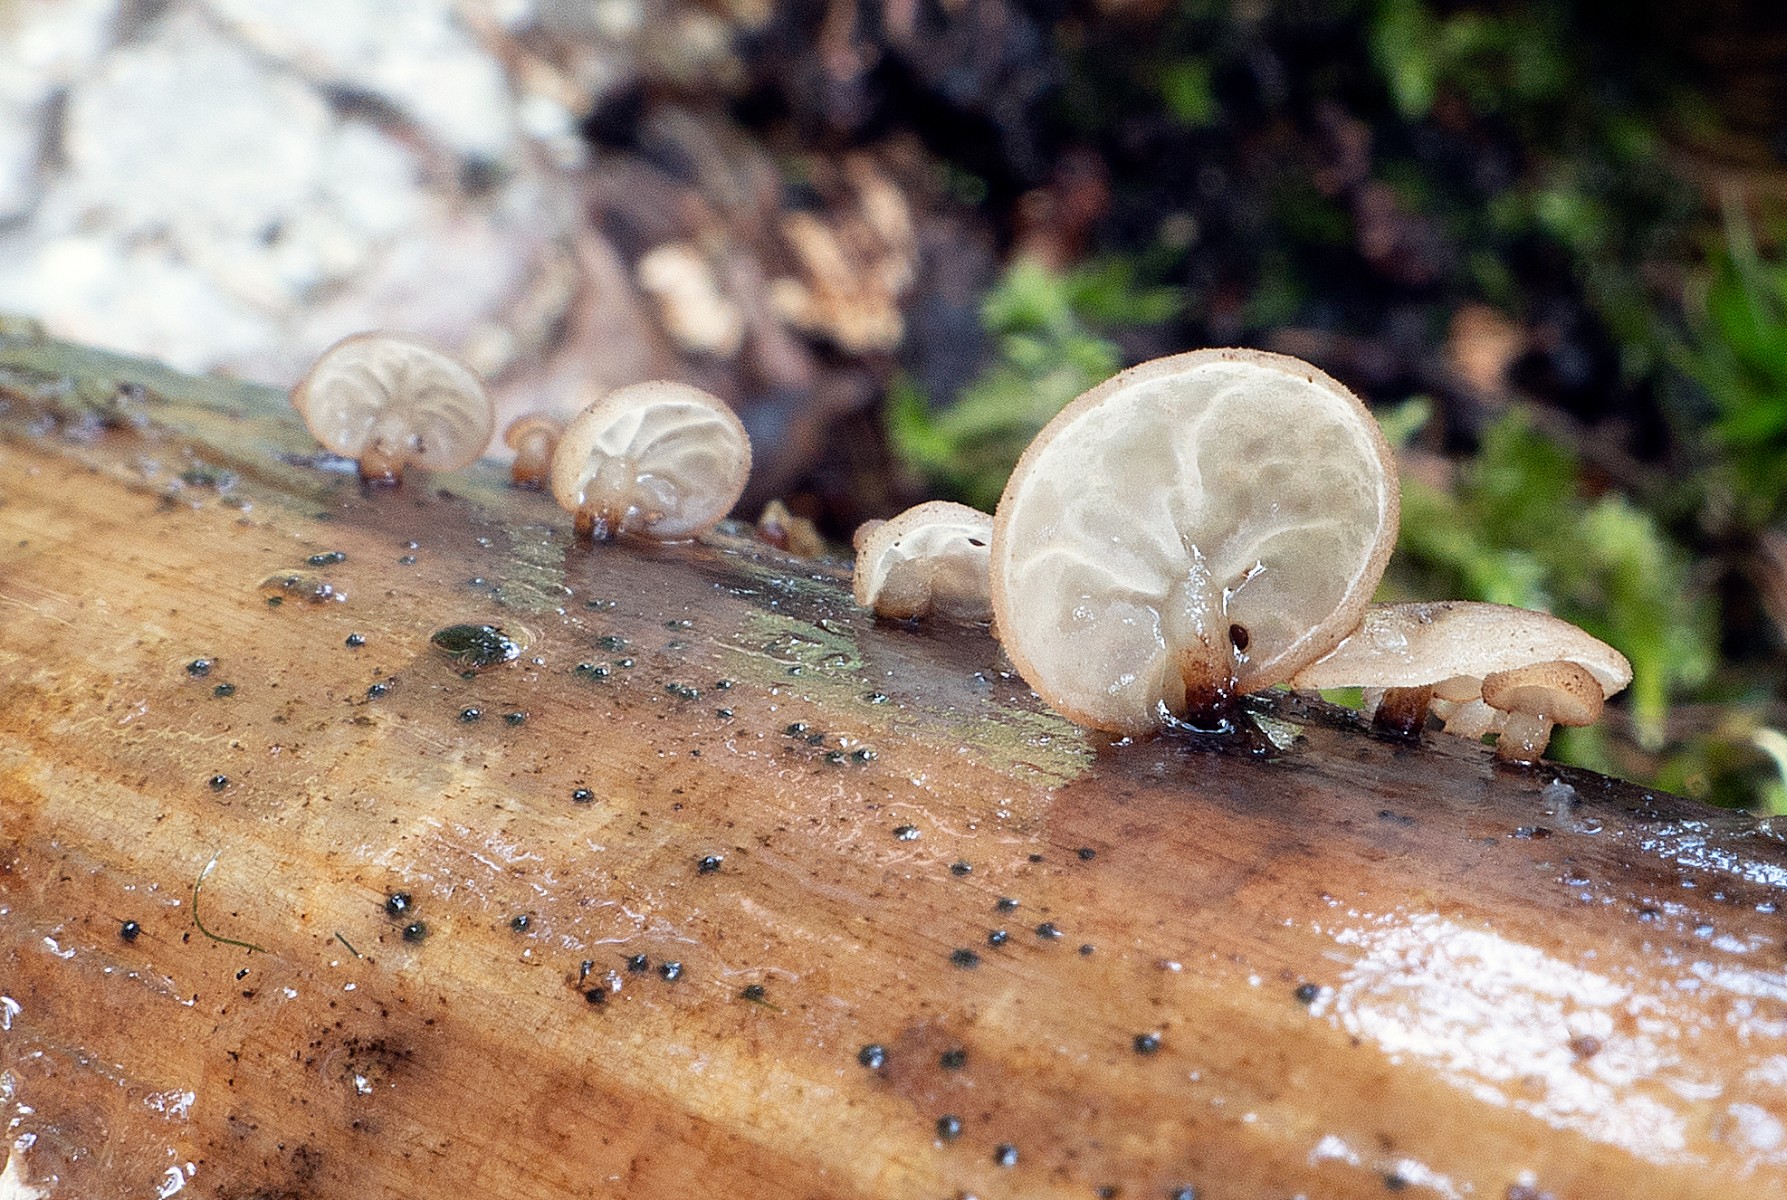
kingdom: Fungi
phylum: Basidiomycota
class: Agaricomycetes
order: Agaricales
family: Physalacriaceae
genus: Gloiocephala
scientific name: Gloiocephala menieri
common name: dunhammer-spatelhat
